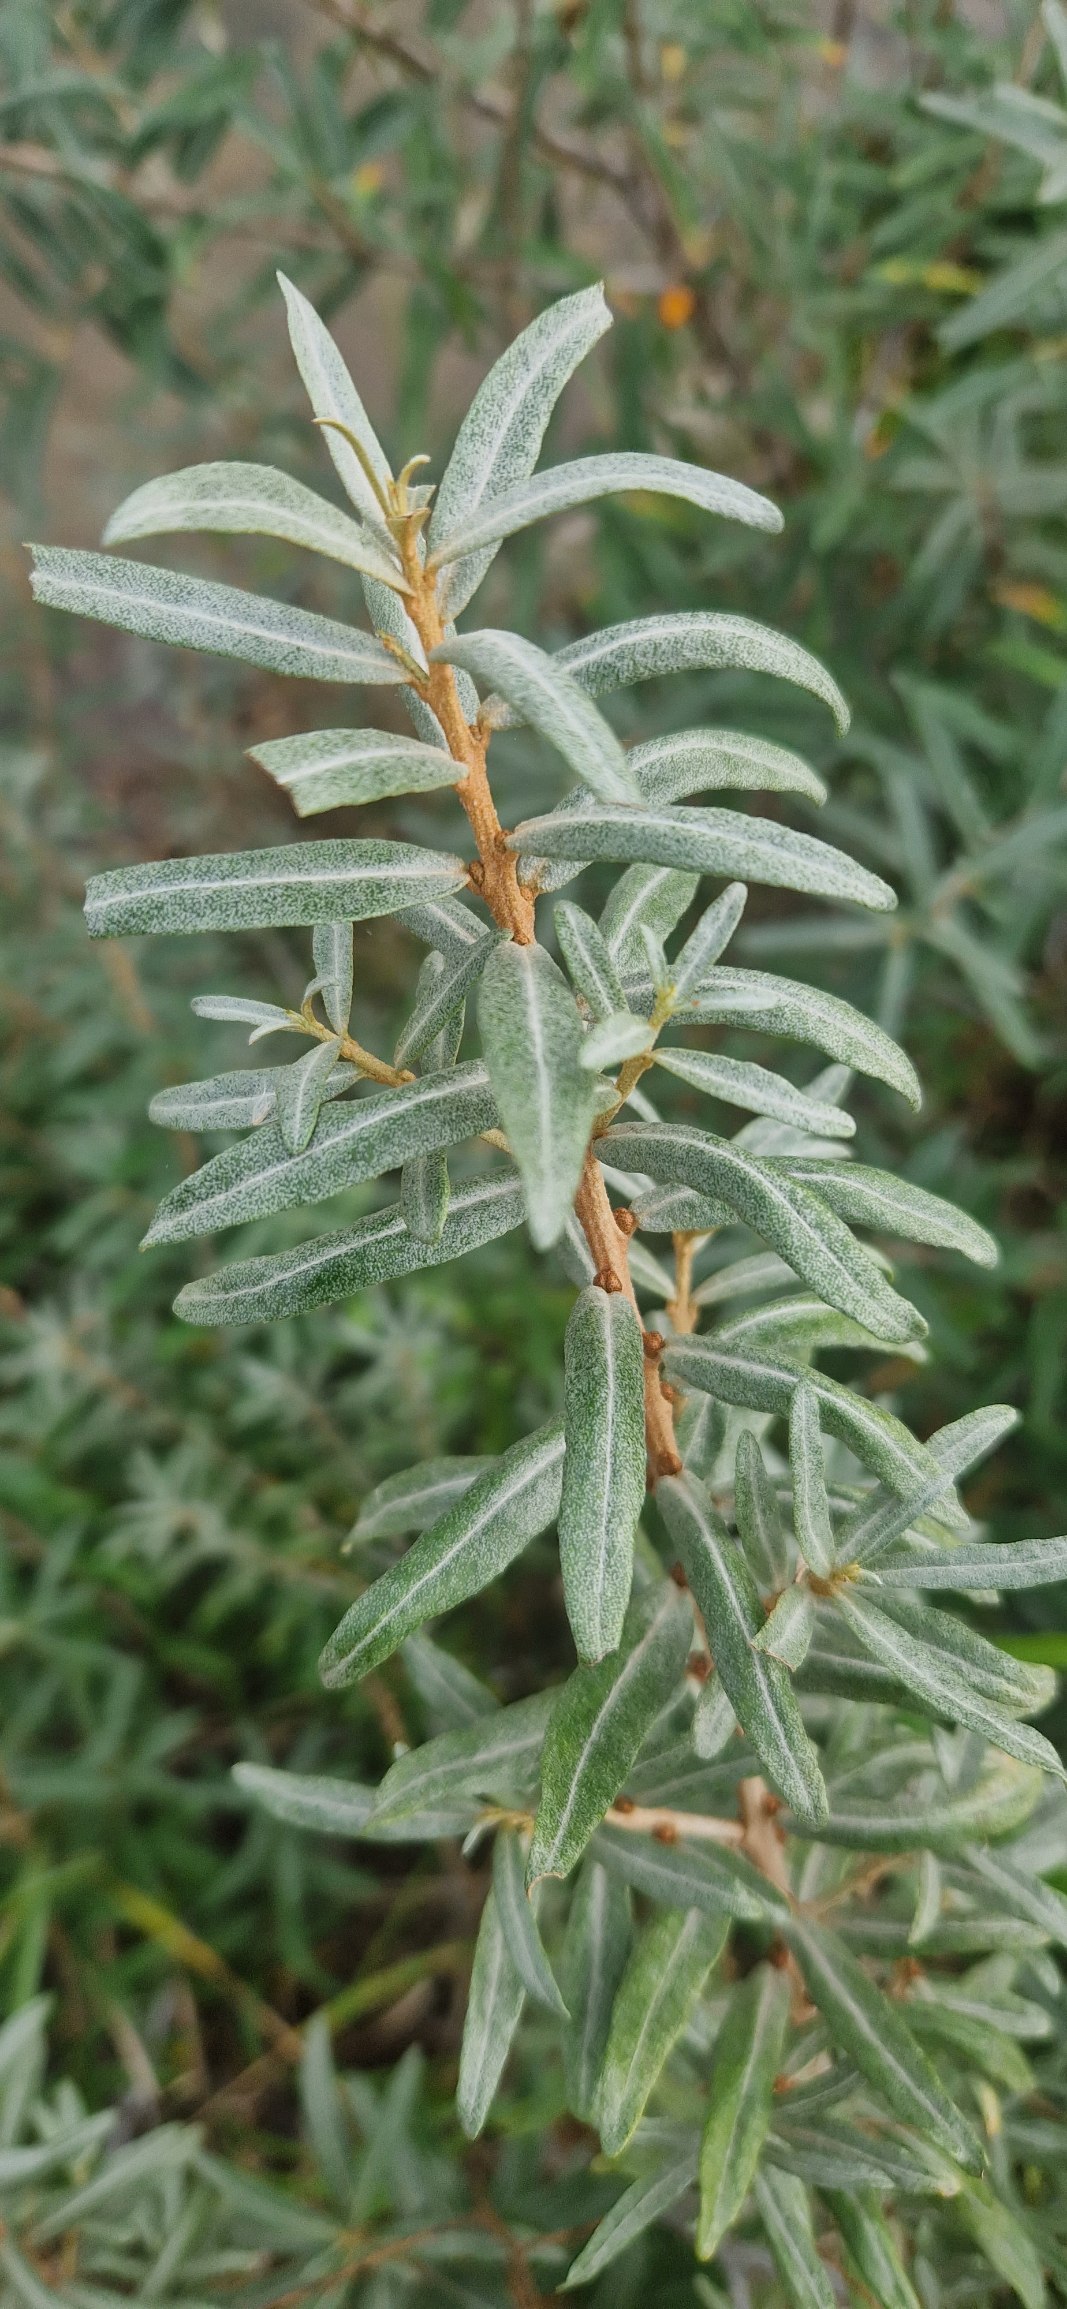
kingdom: Plantae
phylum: Tracheophyta
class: Magnoliopsida
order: Rosales
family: Elaeagnaceae
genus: Hippophae
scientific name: Hippophae rhamnoides
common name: Havtorn
